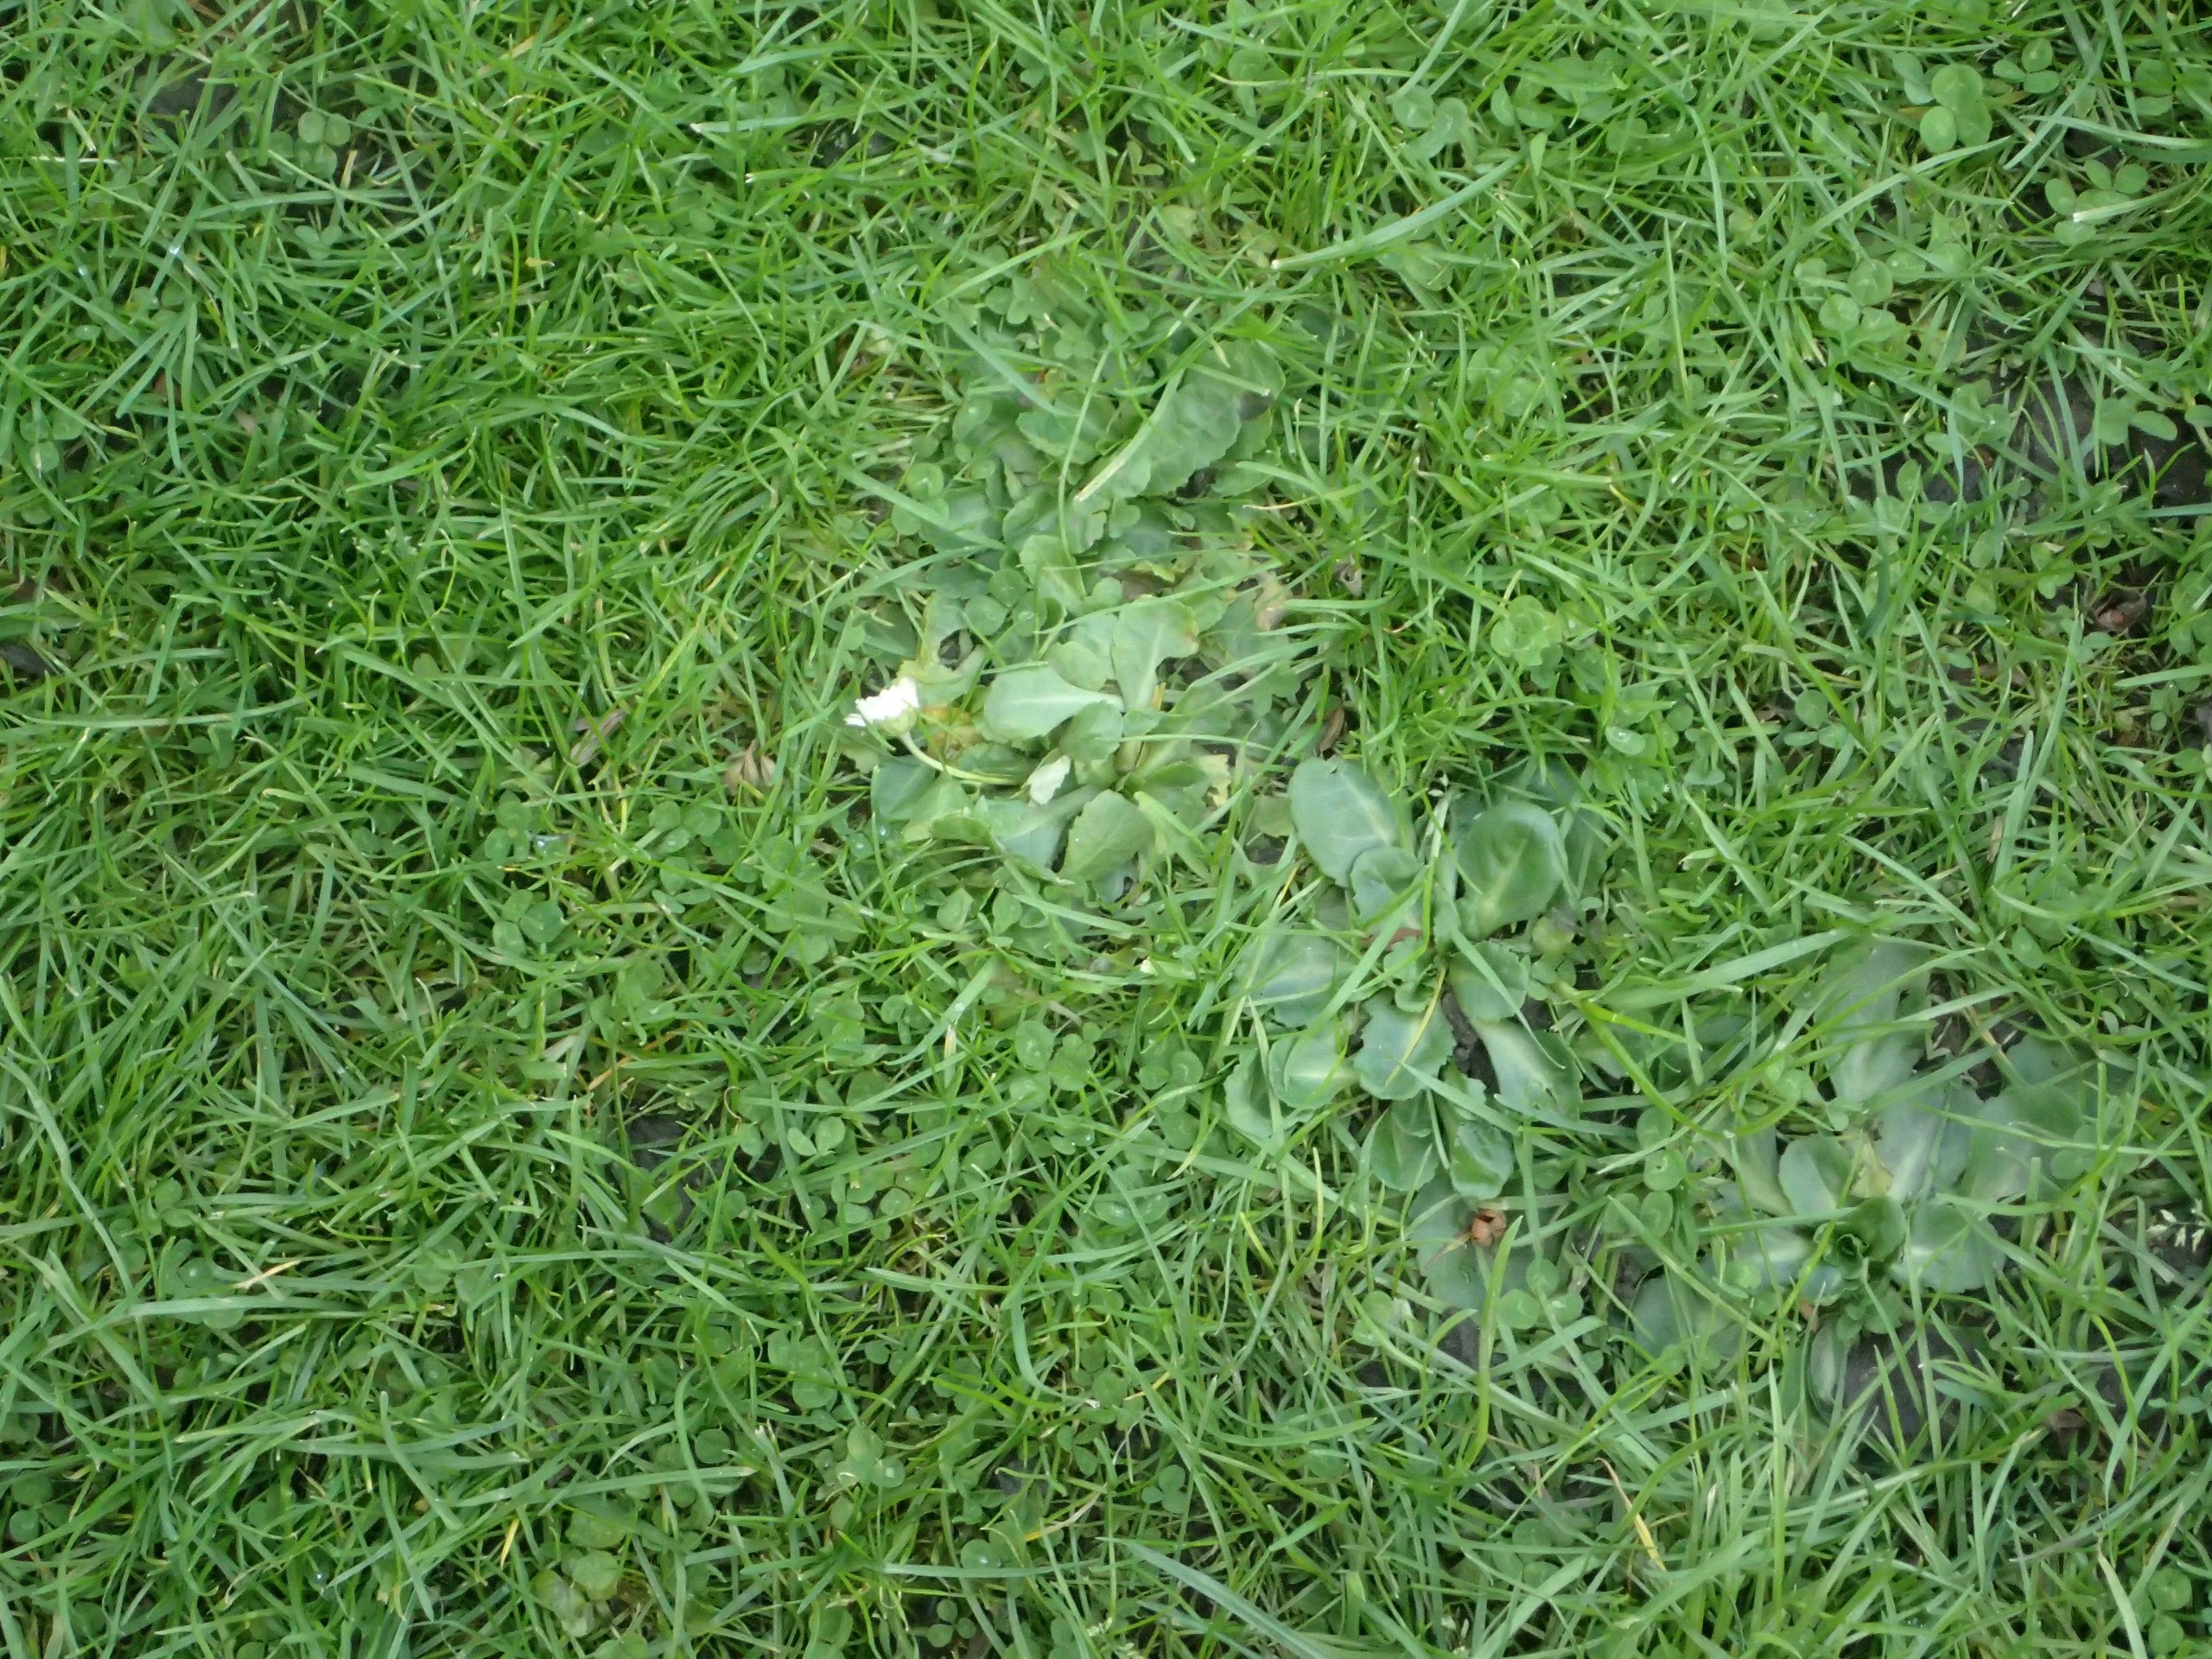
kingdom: Plantae
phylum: Tracheophyta
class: Magnoliopsida
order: Asterales
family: Asteraceae
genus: Bellis
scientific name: Bellis perennis
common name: Tusindfryd
